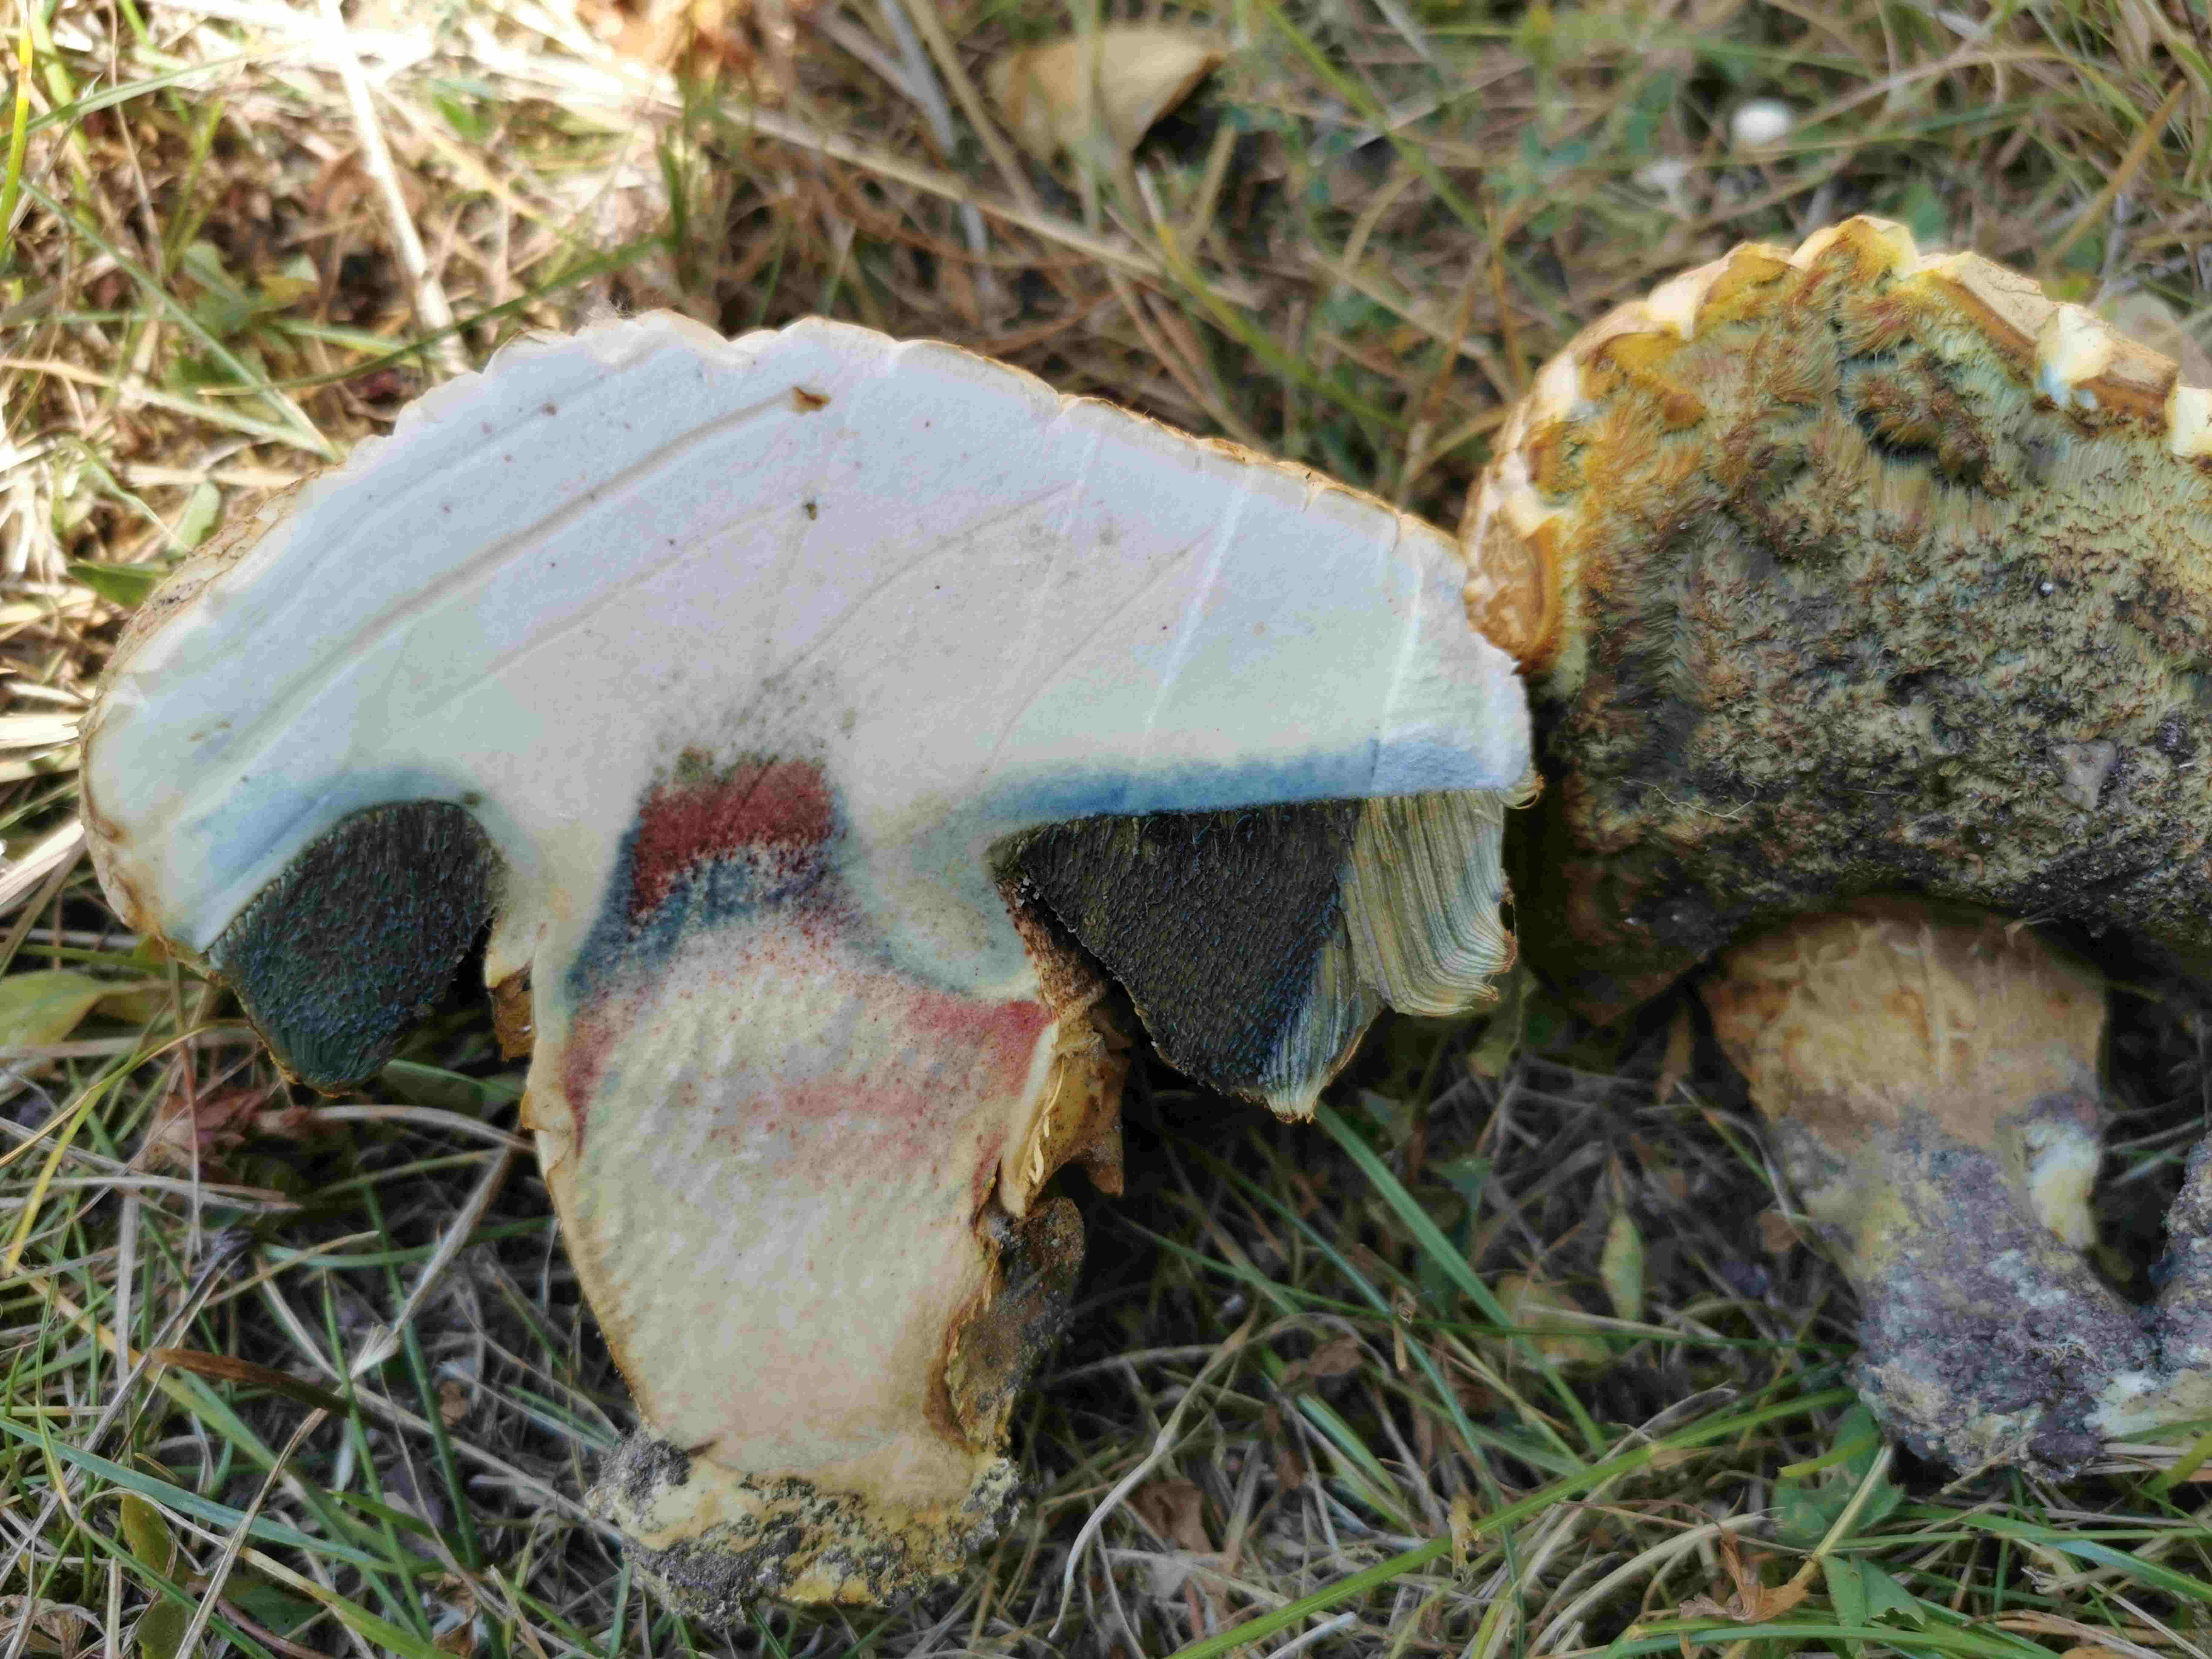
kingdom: Fungi
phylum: Basidiomycota
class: Agaricomycetes
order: Boletales
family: Boletaceae
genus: Caloboletus
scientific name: Caloboletus radicans
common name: rod-rørhat
